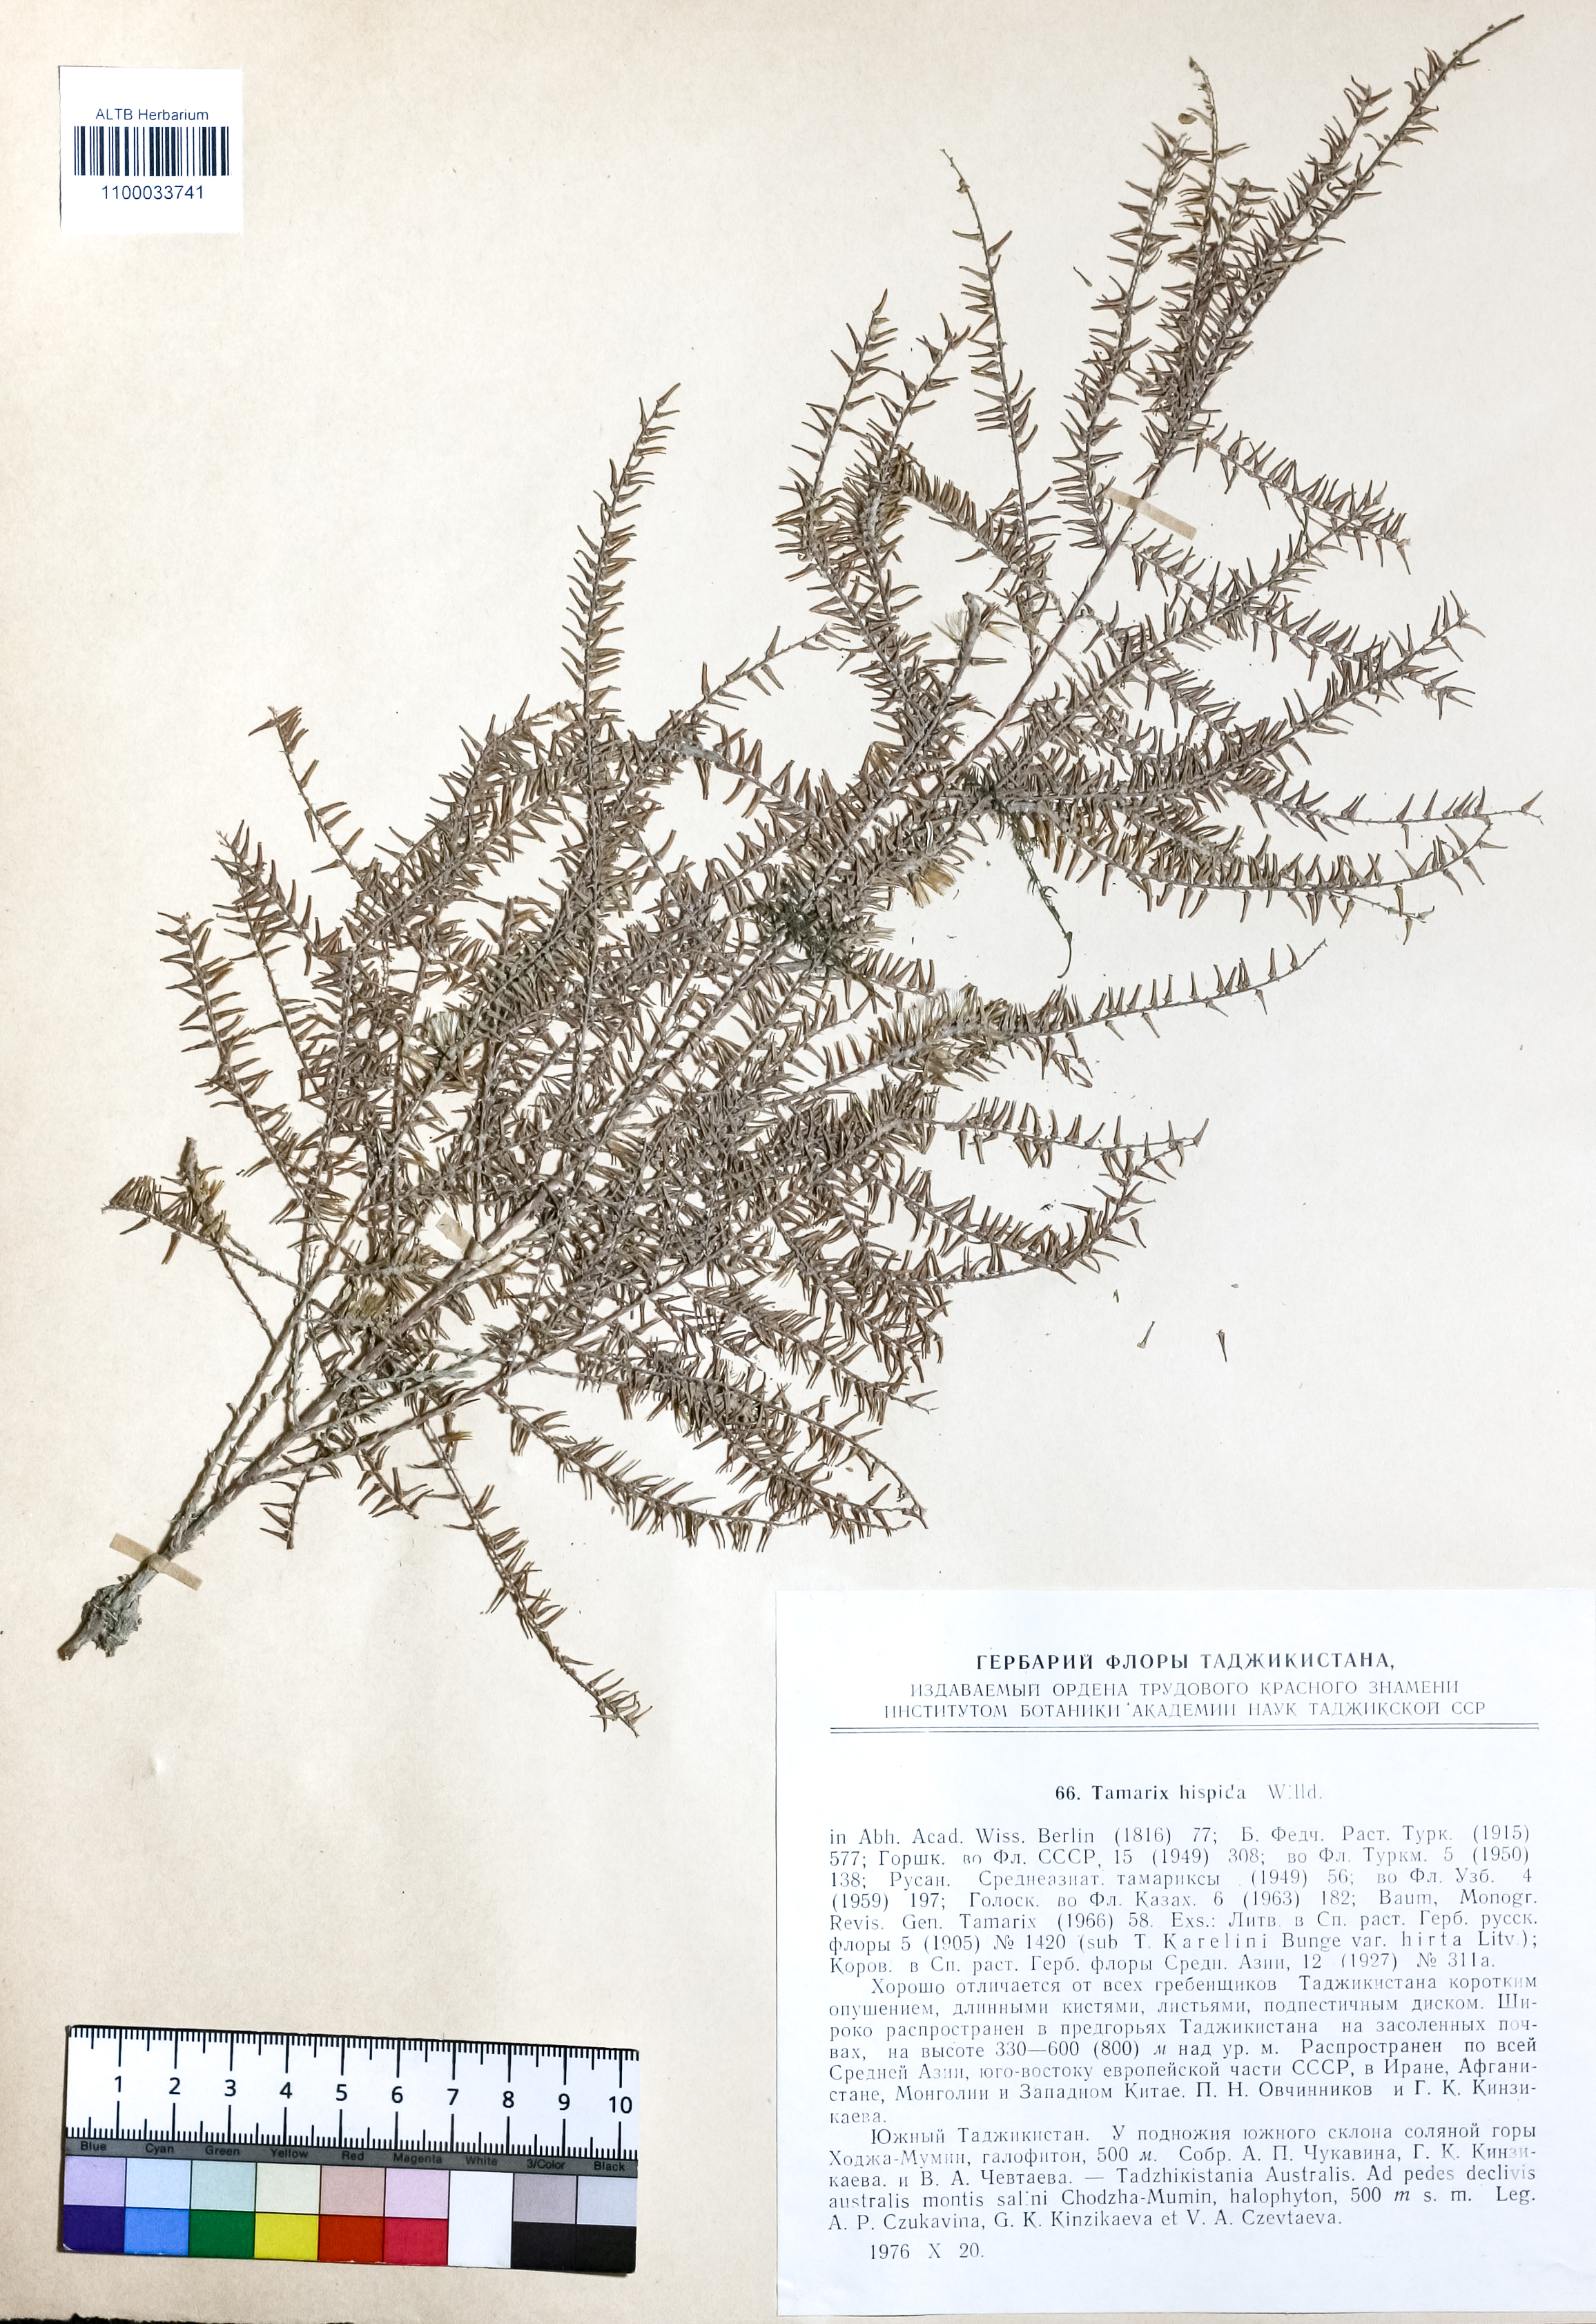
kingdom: Plantae
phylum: Tracheophyta
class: Magnoliopsida
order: Caryophyllales
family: Tamaricaceae
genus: Tamarix
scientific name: Tamarix hispida
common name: Kashgar tamarisk
